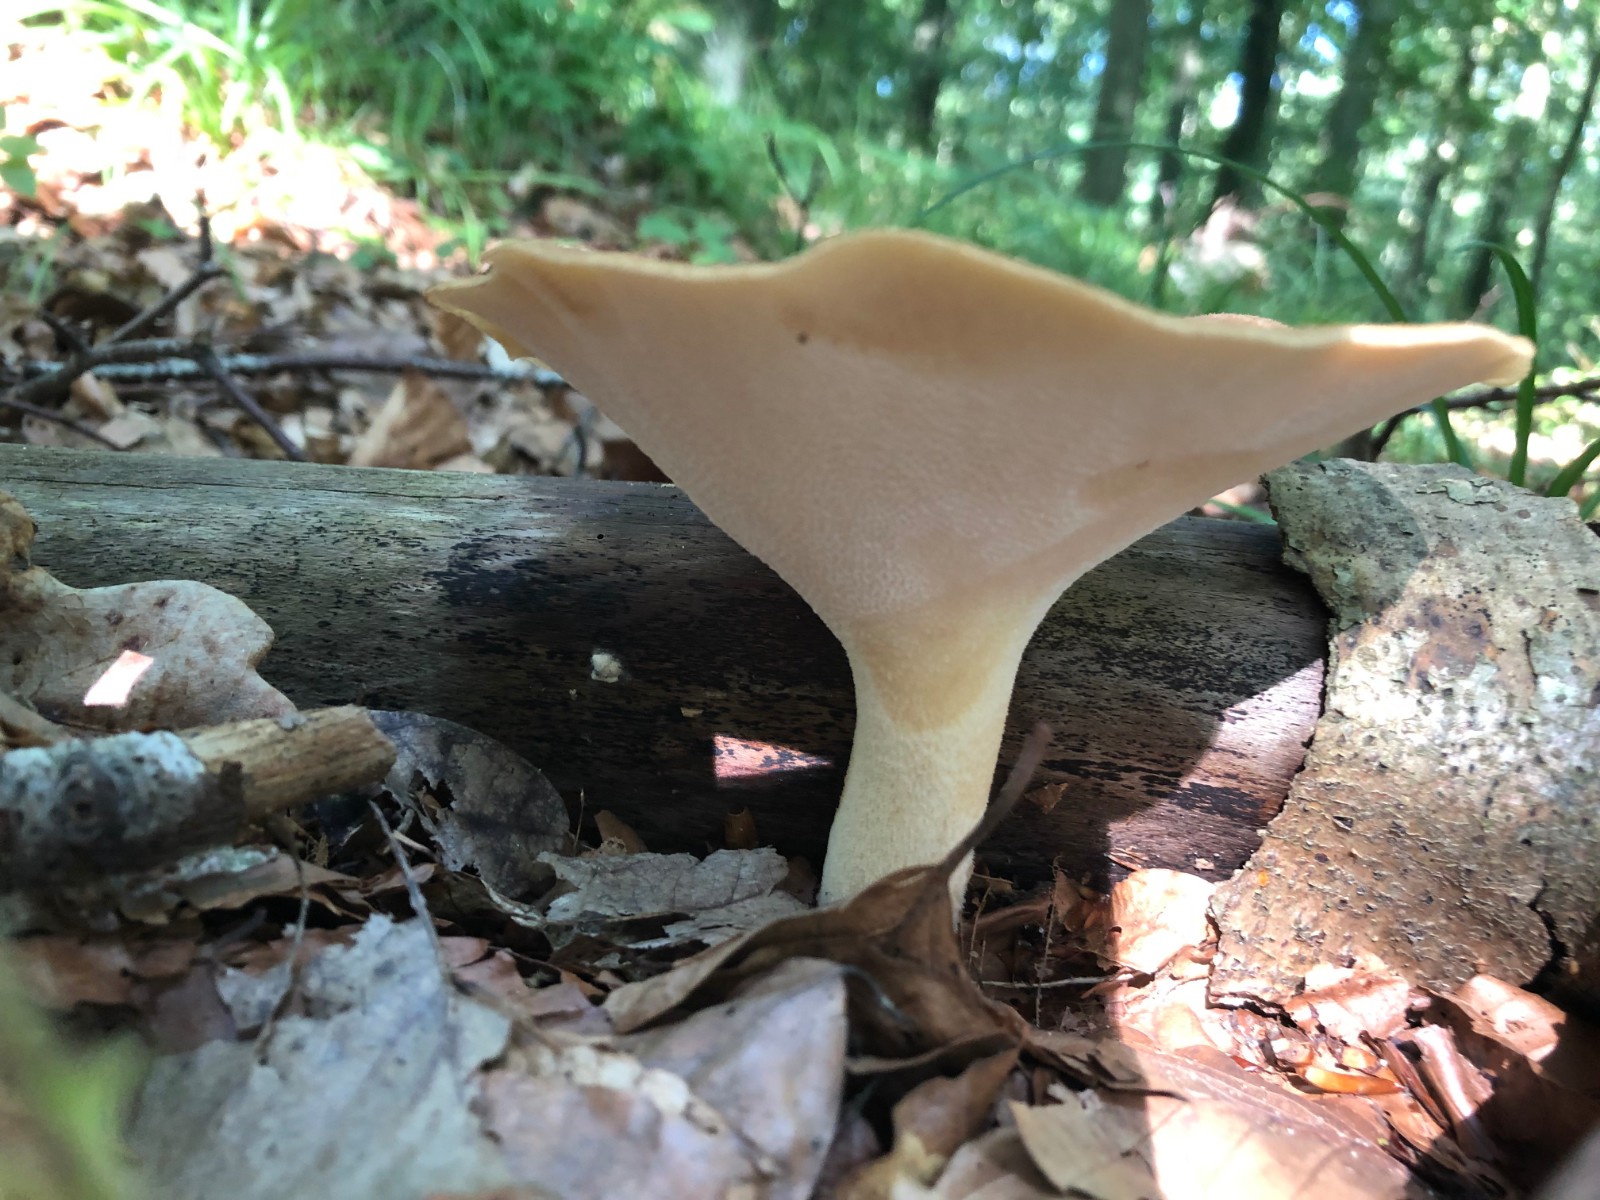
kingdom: Fungi
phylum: Basidiomycota
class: Agaricomycetes
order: Polyporales
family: Polyporaceae
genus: Polyporus
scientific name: Polyporus tuberaster
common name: knoldet stilkporesvamp
